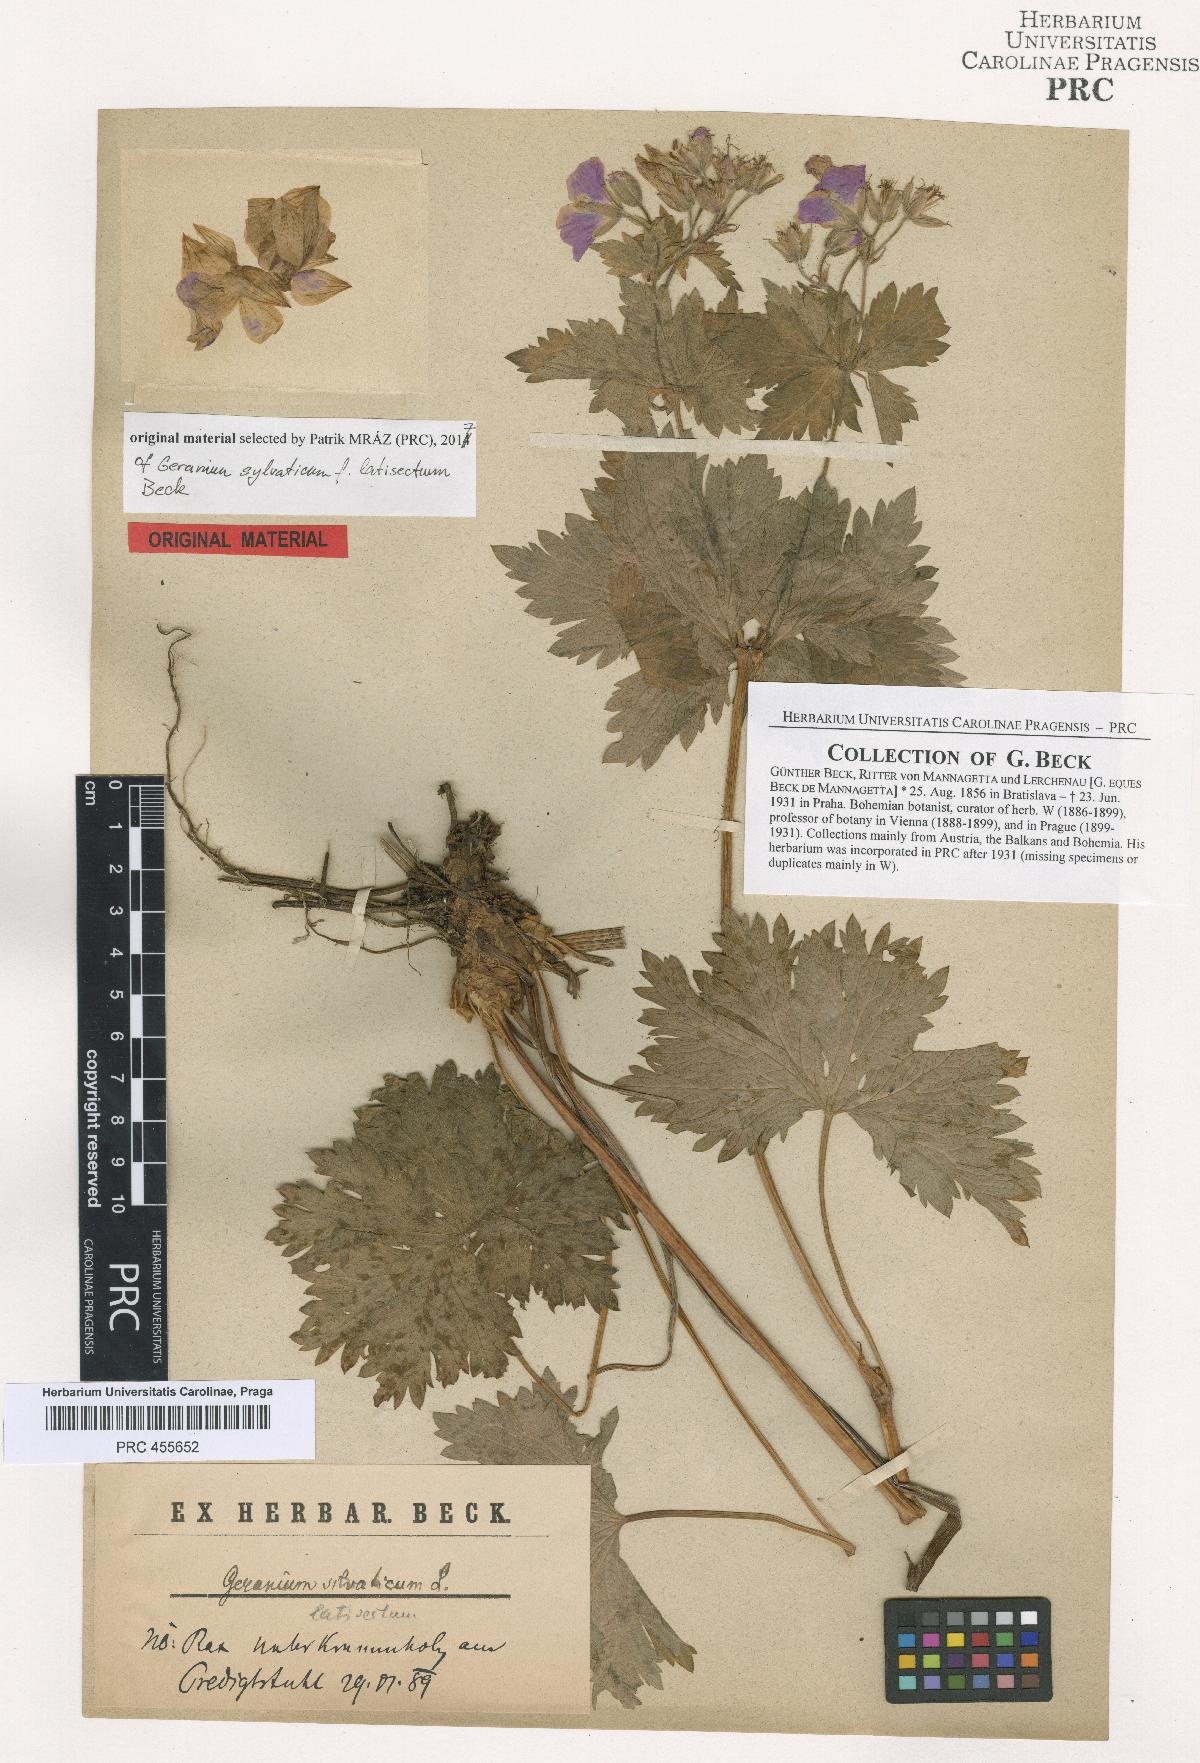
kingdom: Plantae
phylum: Tracheophyta
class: Magnoliopsida
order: Geraniales
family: Geraniaceae
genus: Geranium
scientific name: Geranium sylvaticum
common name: Wood crane's-bill
